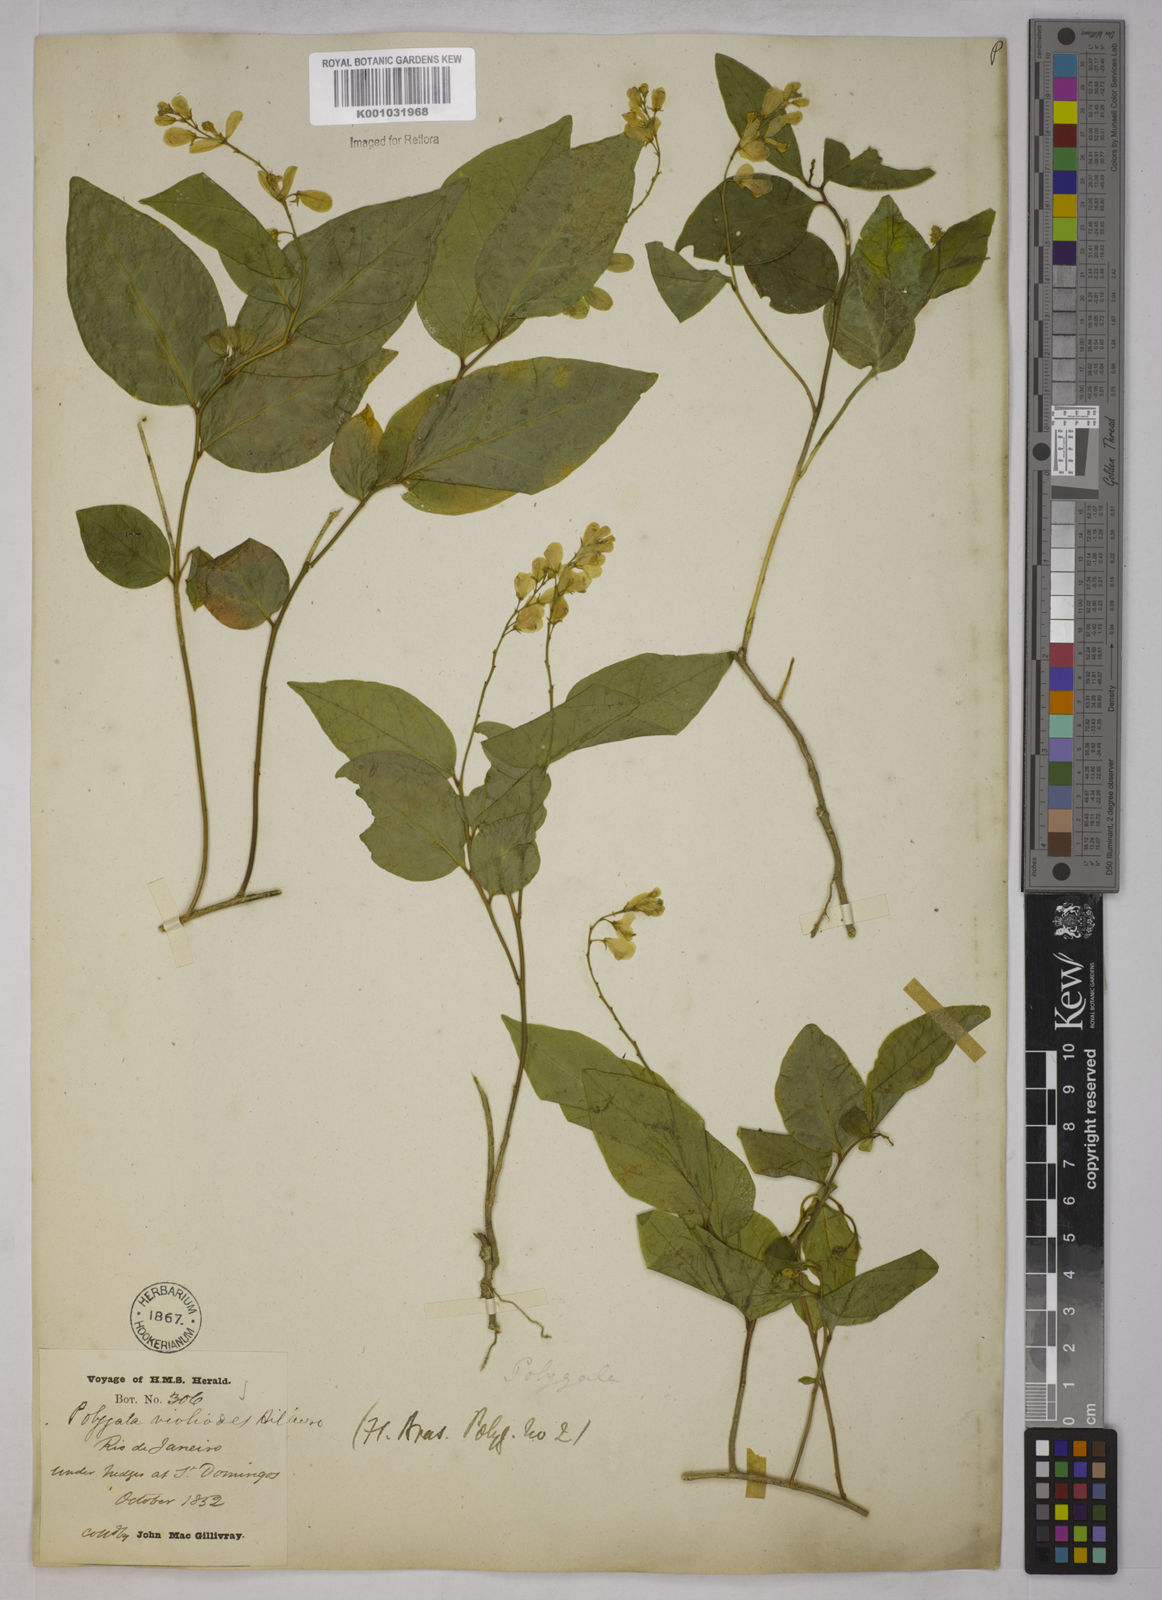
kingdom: Plantae
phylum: Tracheophyta
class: Magnoliopsida
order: Fabales
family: Polygalaceae
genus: Gymnospora
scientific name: Gymnospora violoides
